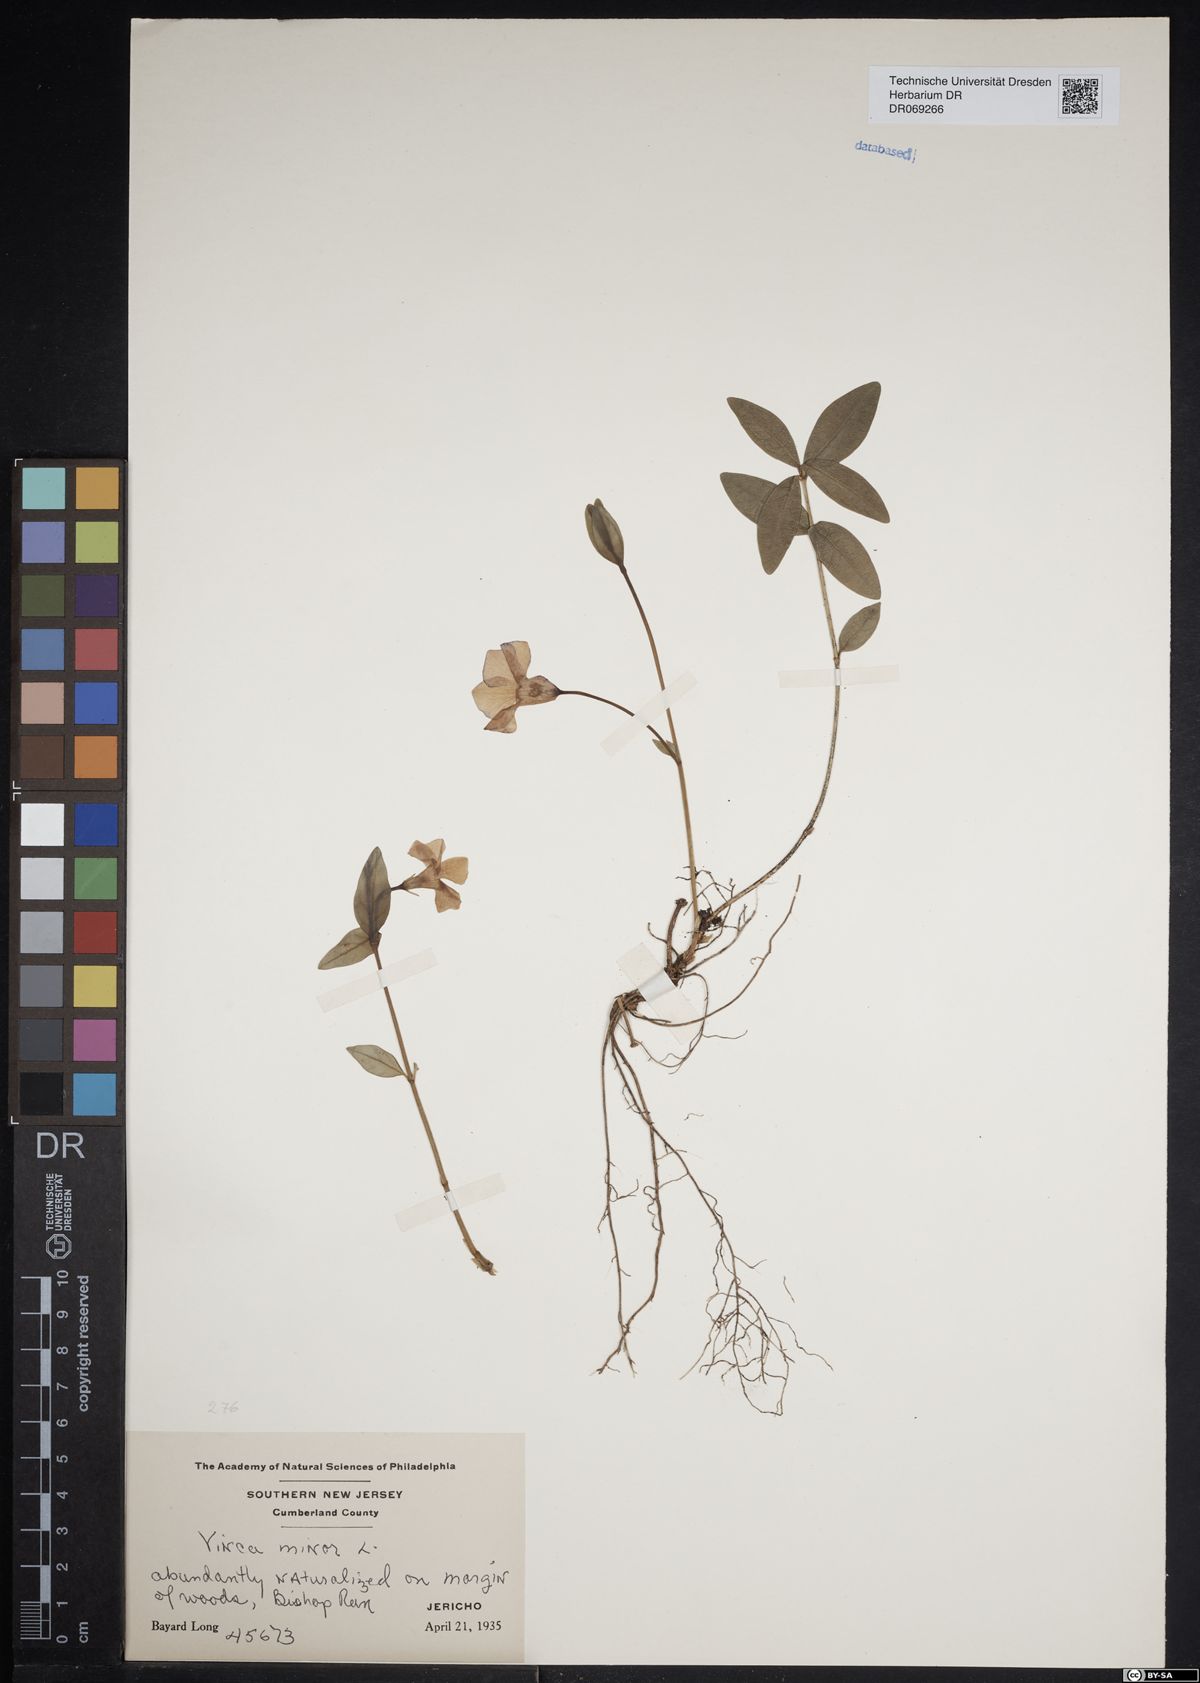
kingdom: Plantae
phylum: Tracheophyta
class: Magnoliopsida
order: Gentianales
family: Apocynaceae
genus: Vinca
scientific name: Vinca minor
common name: Lesser periwinkle
